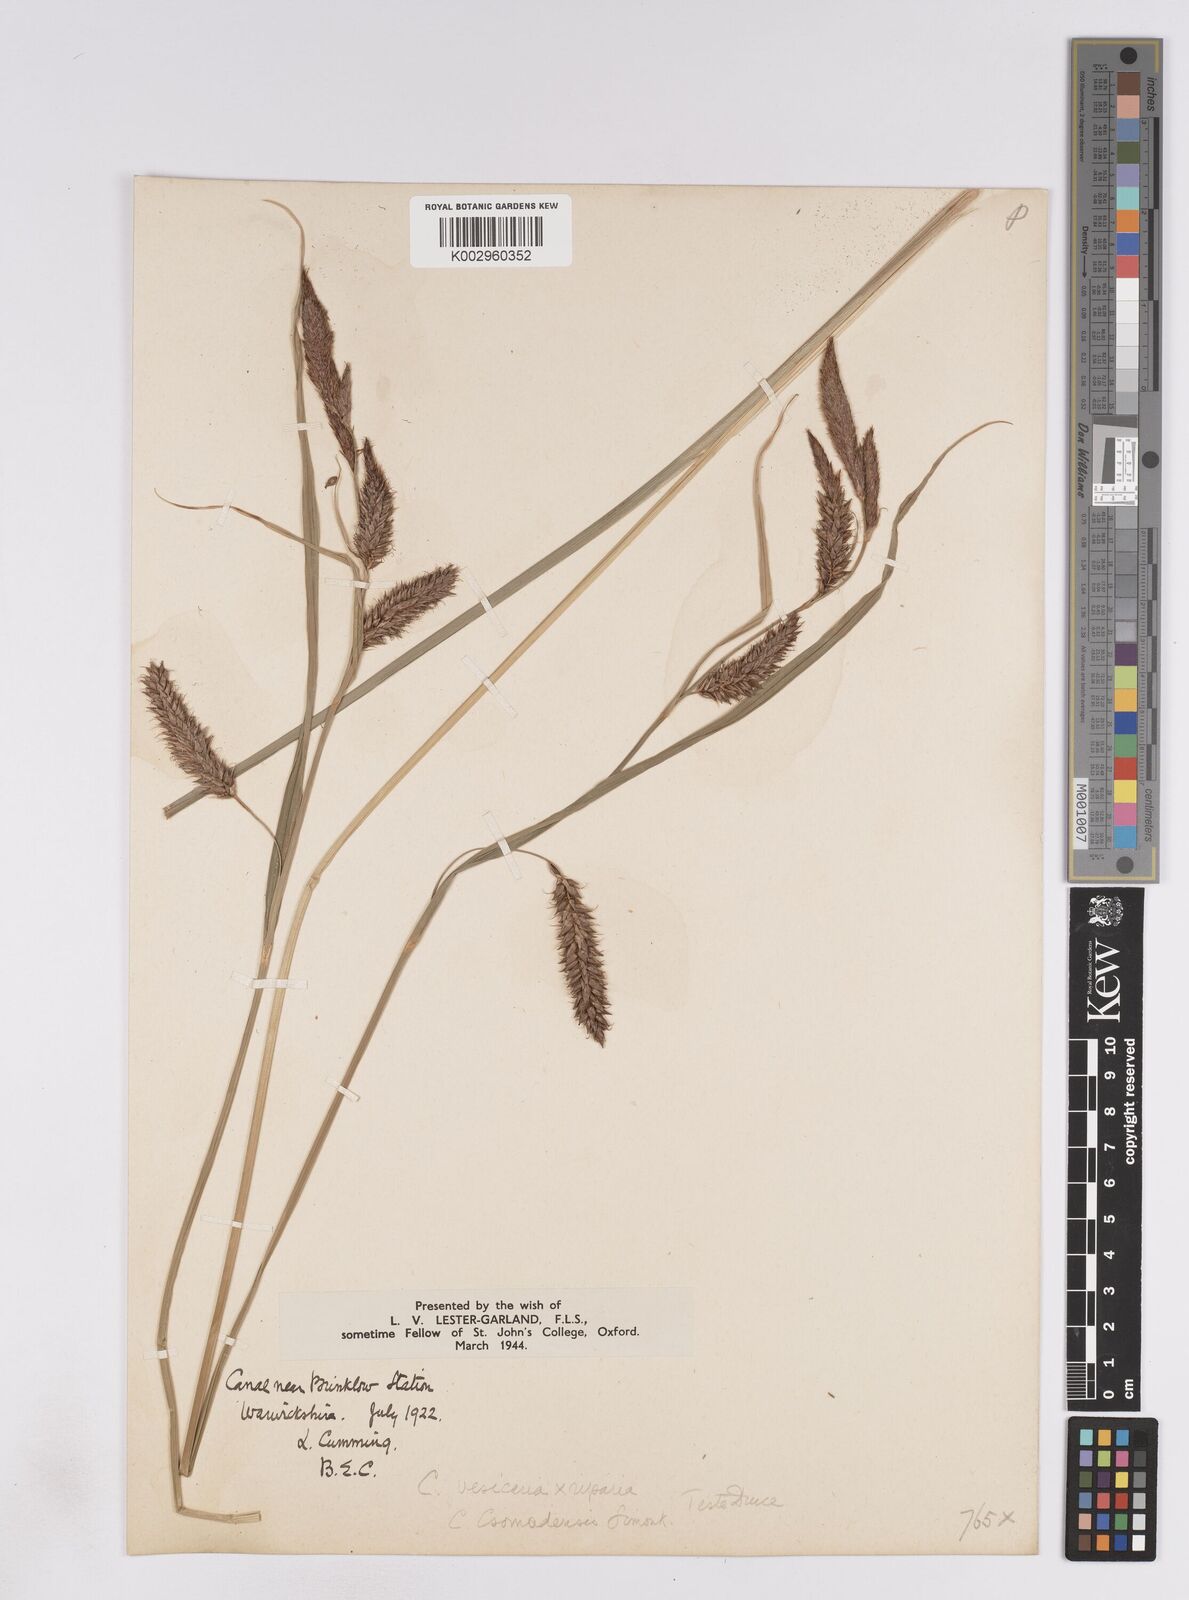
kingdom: Plantae
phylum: Tracheophyta
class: Liliopsida
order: Poales
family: Cyperaceae
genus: Carex
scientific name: Carex vesicaria
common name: Bladder-sedge
